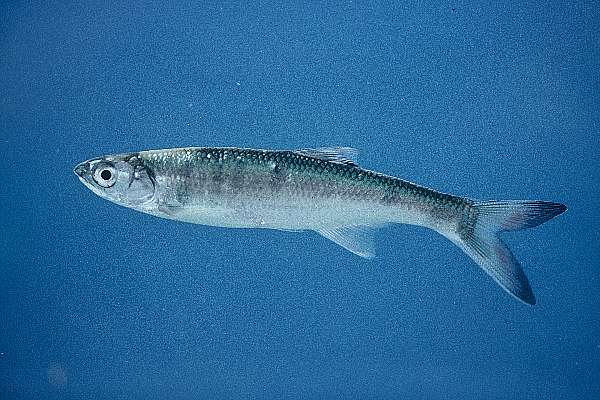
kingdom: Animalia
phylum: Chordata
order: Cypriniformes
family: Cyprinidae
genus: Opsaridium
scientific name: Opsaridium microcephalum
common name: Lake trout
